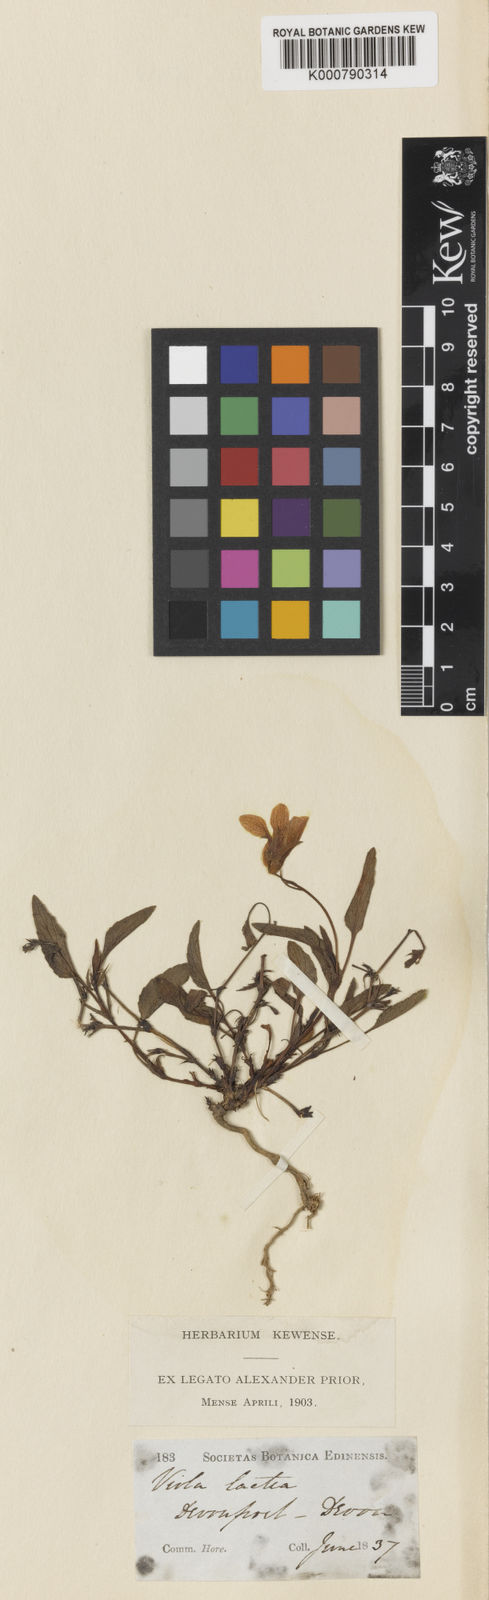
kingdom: Plantae
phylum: Tracheophyta
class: Magnoliopsida
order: Malpighiales
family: Violaceae
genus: Viola
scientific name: Viola lactea
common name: Pale dog-violet
